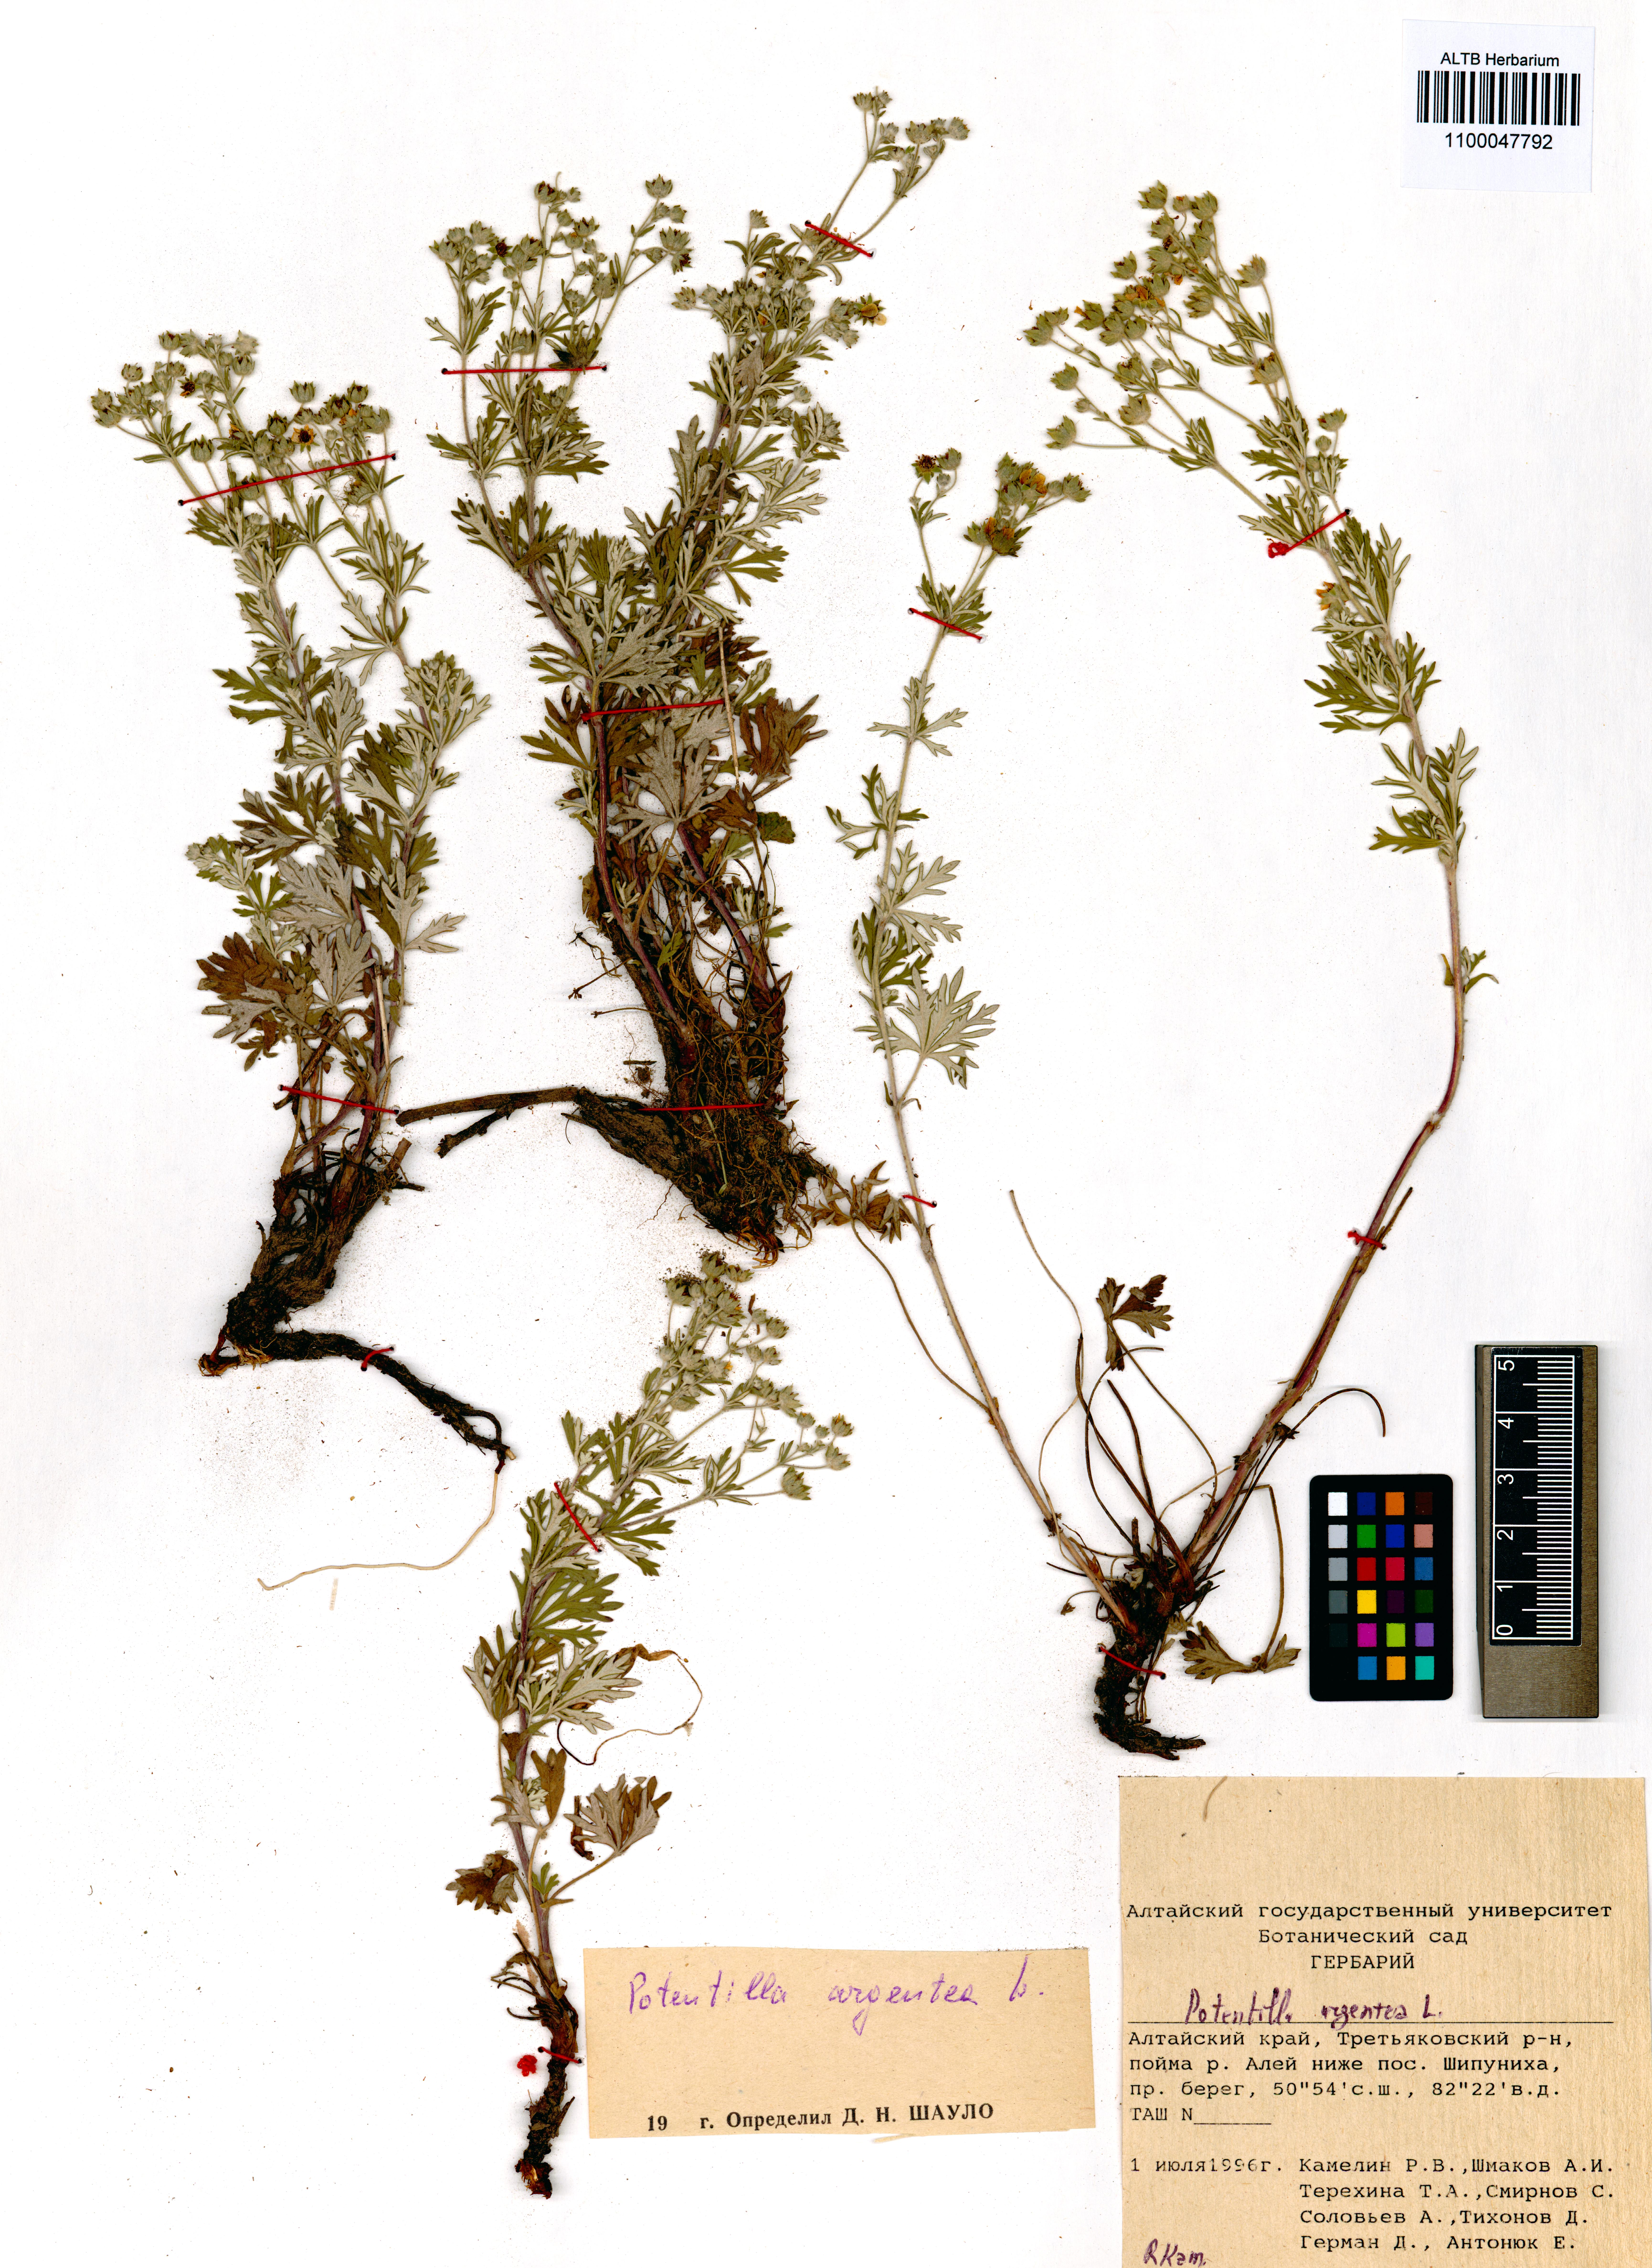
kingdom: Plantae
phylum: Tracheophyta
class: Magnoliopsida
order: Rosales
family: Rosaceae
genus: Potentilla
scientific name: Potentilla argentea
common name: Hoary cinquefoil
